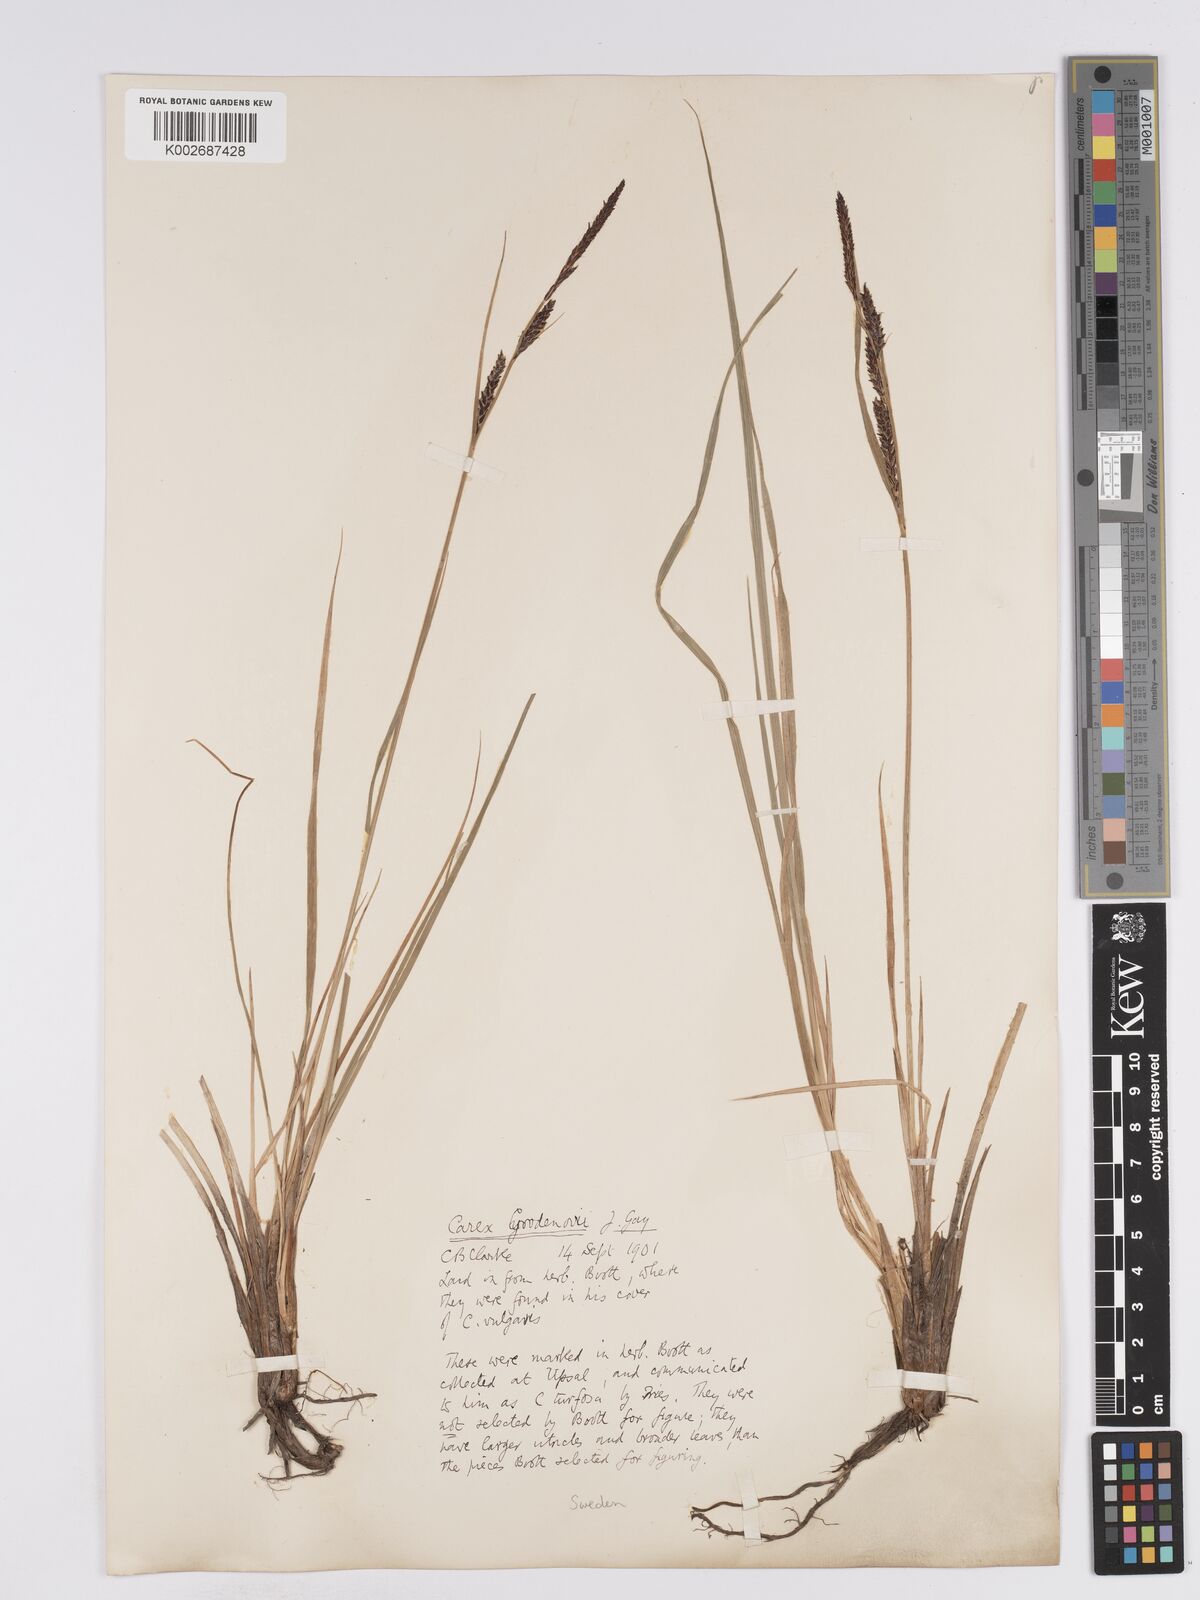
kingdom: Plantae
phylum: Tracheophyta
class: Liliopsida
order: Poales
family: Cyperaceae
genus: Carex
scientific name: Carex nigra
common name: Common sedge
